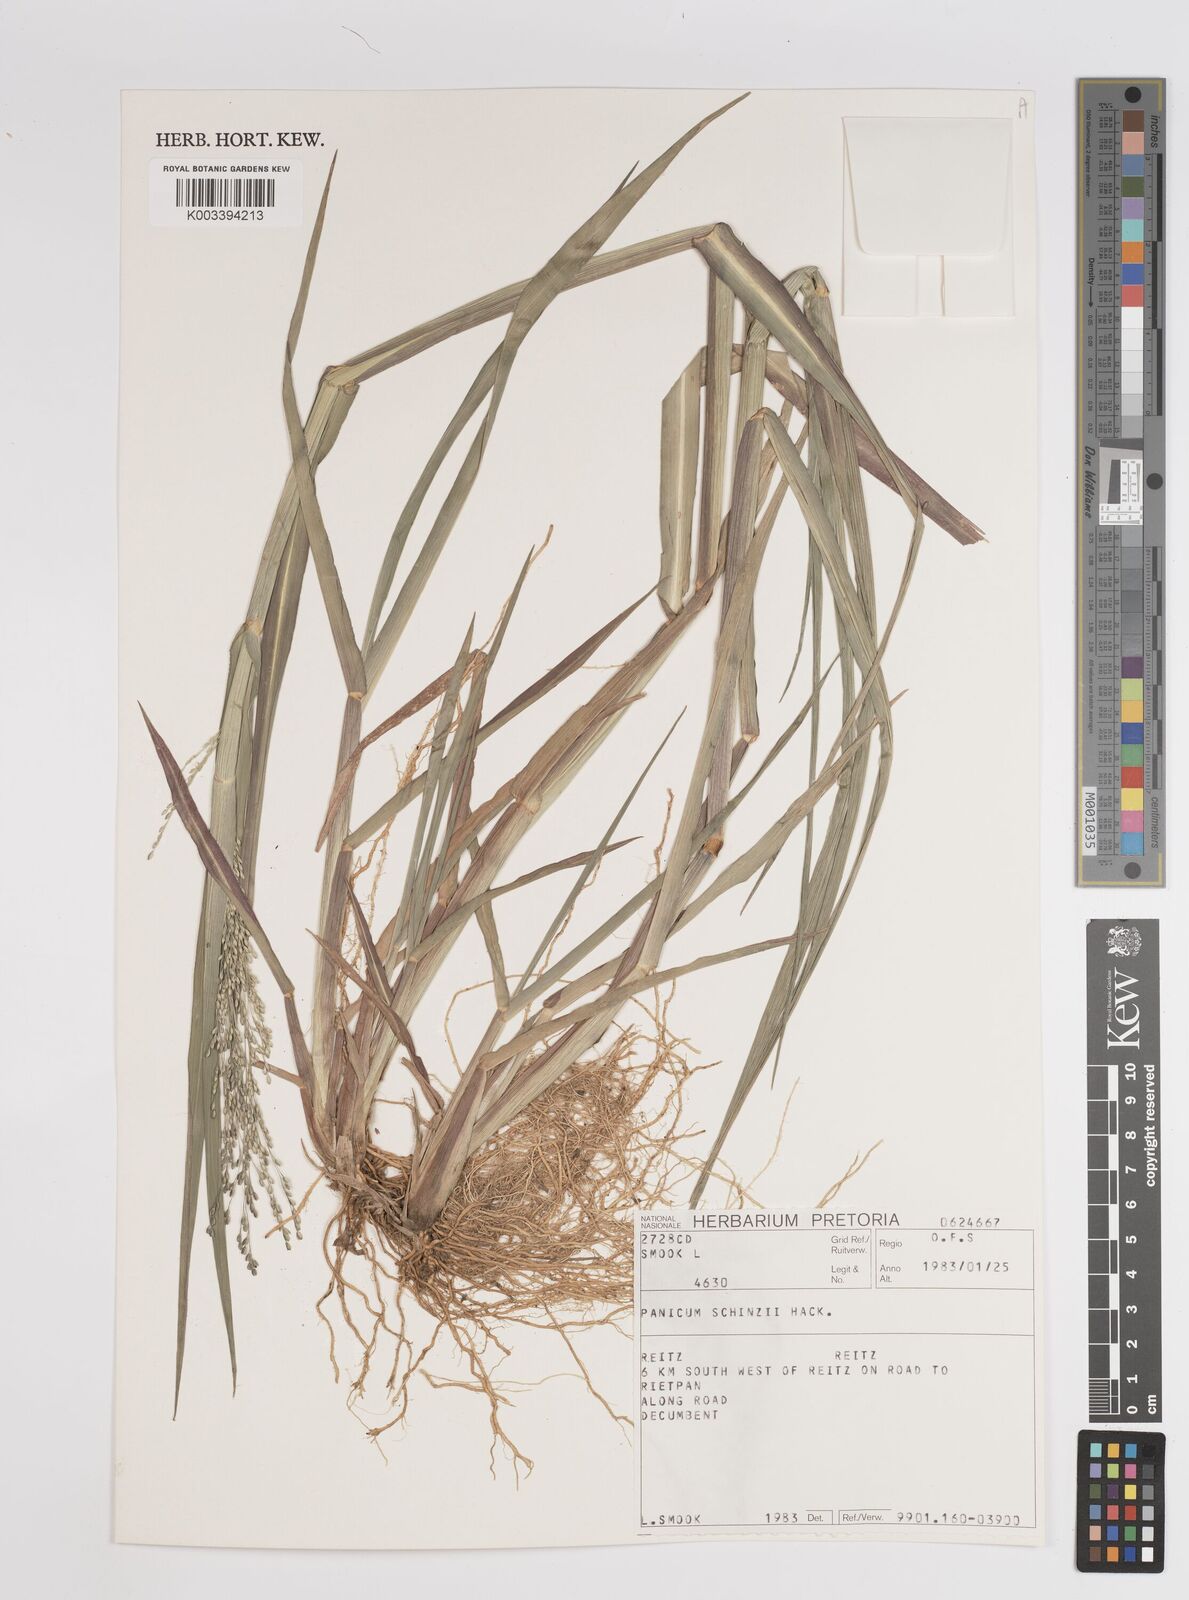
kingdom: Plantae
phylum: Tracheophyta
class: Liliopsida
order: Poales
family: Poaceae
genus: Panicum
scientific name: Panicum schinzii
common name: Sweet grass
